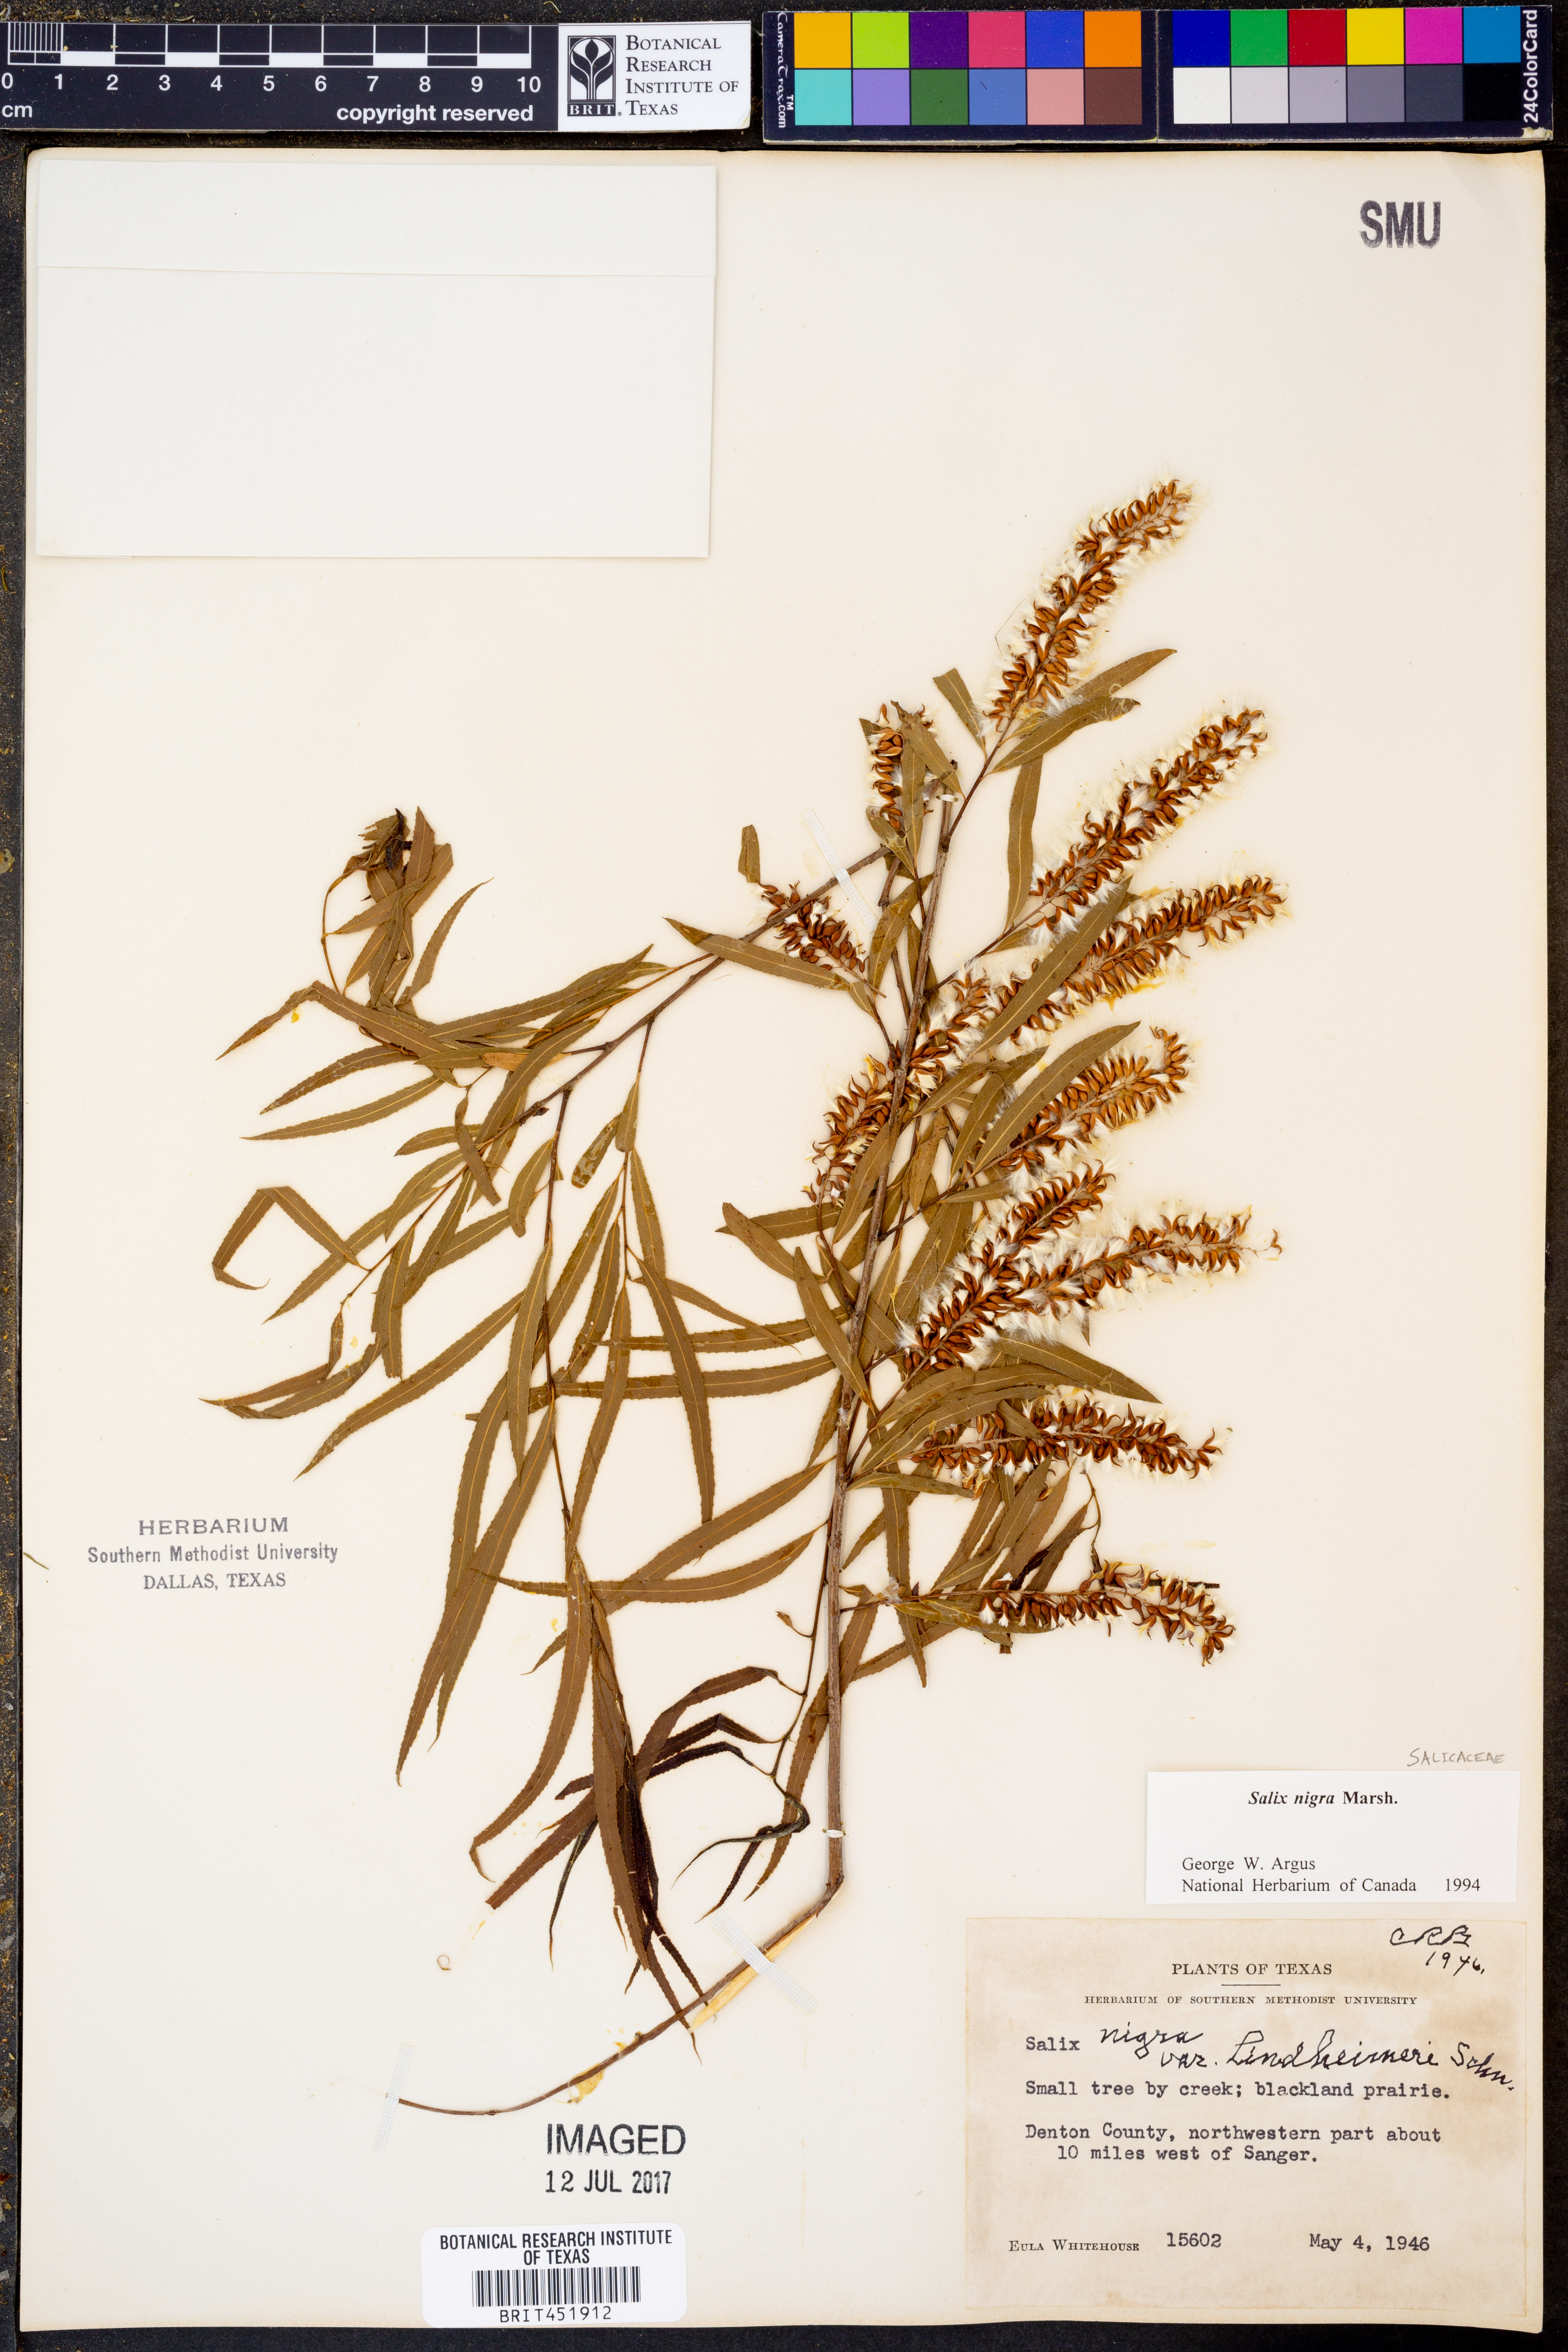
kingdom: Plantae
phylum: Tracheophyta
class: Magnoliopsida
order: Malpighiales
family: Salicaceae
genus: Salix
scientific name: Salix nigra
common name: Black willow
